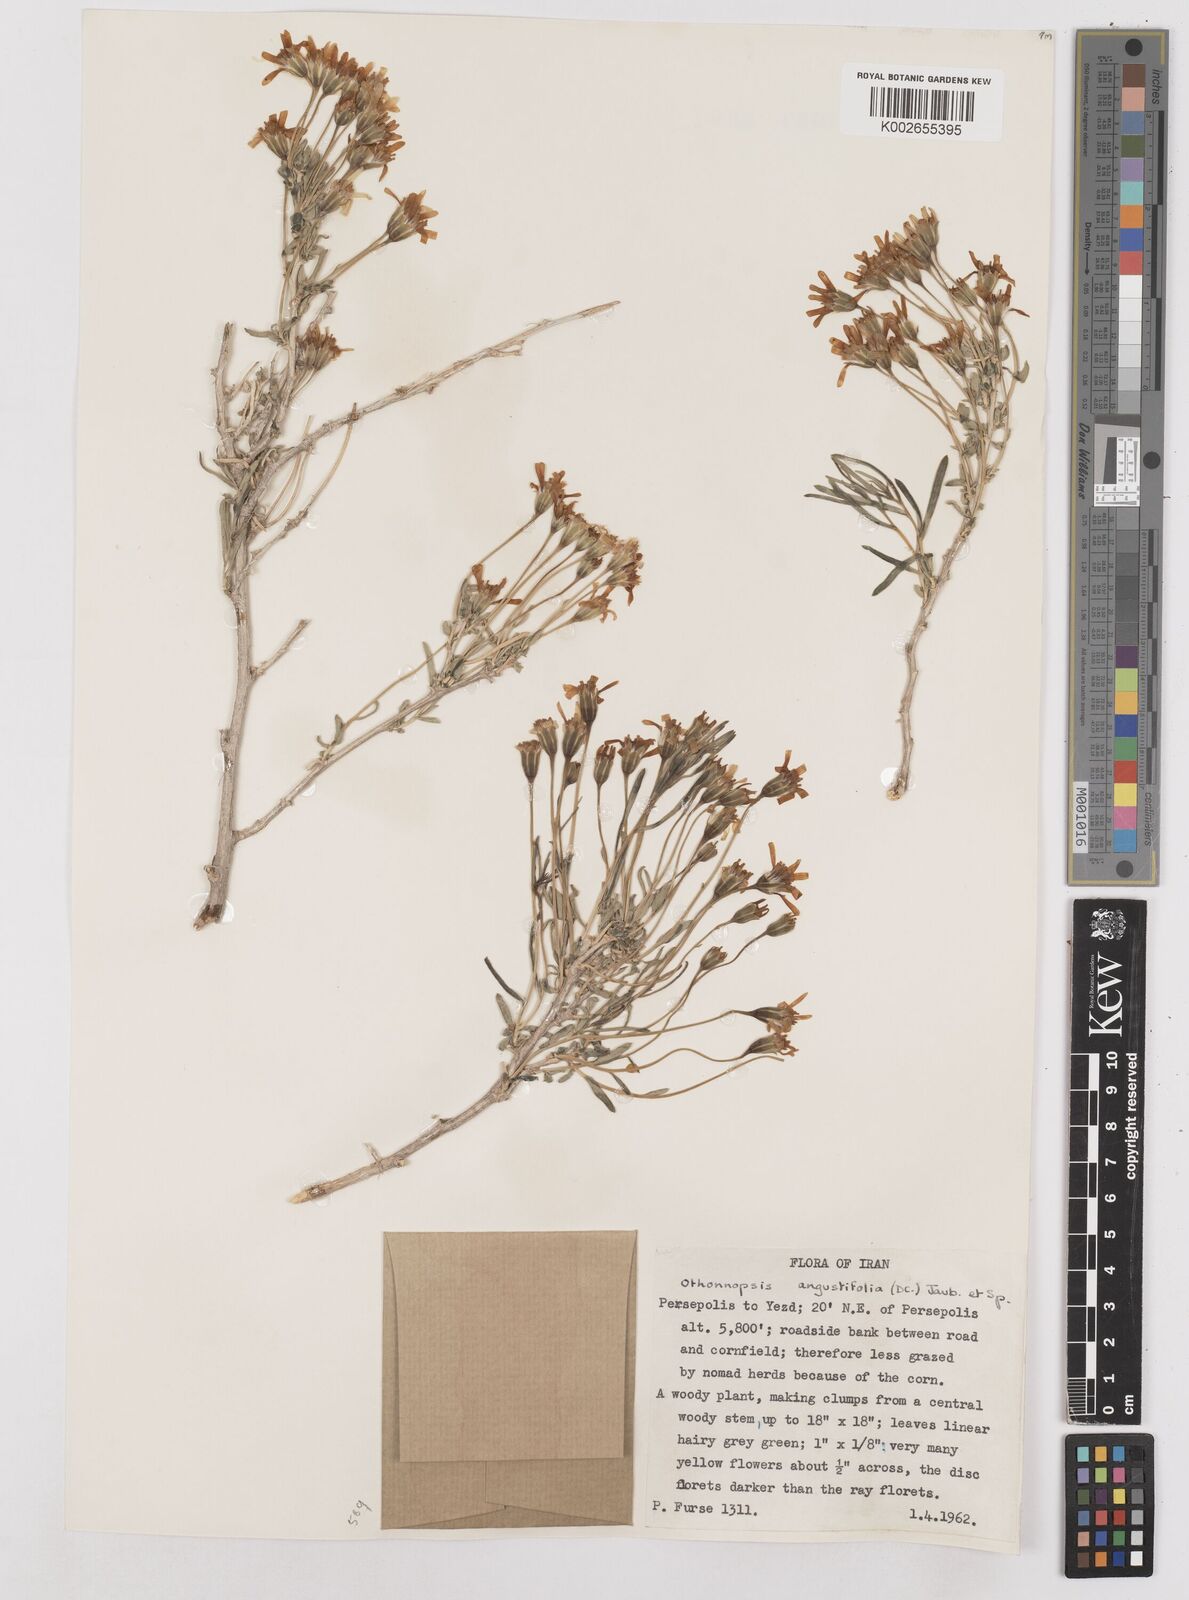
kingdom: Plantae
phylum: Tracheophyta
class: Magnoliopsida
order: Asterales
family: Asteraceae
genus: Hertia
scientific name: Hertia angustifolia
